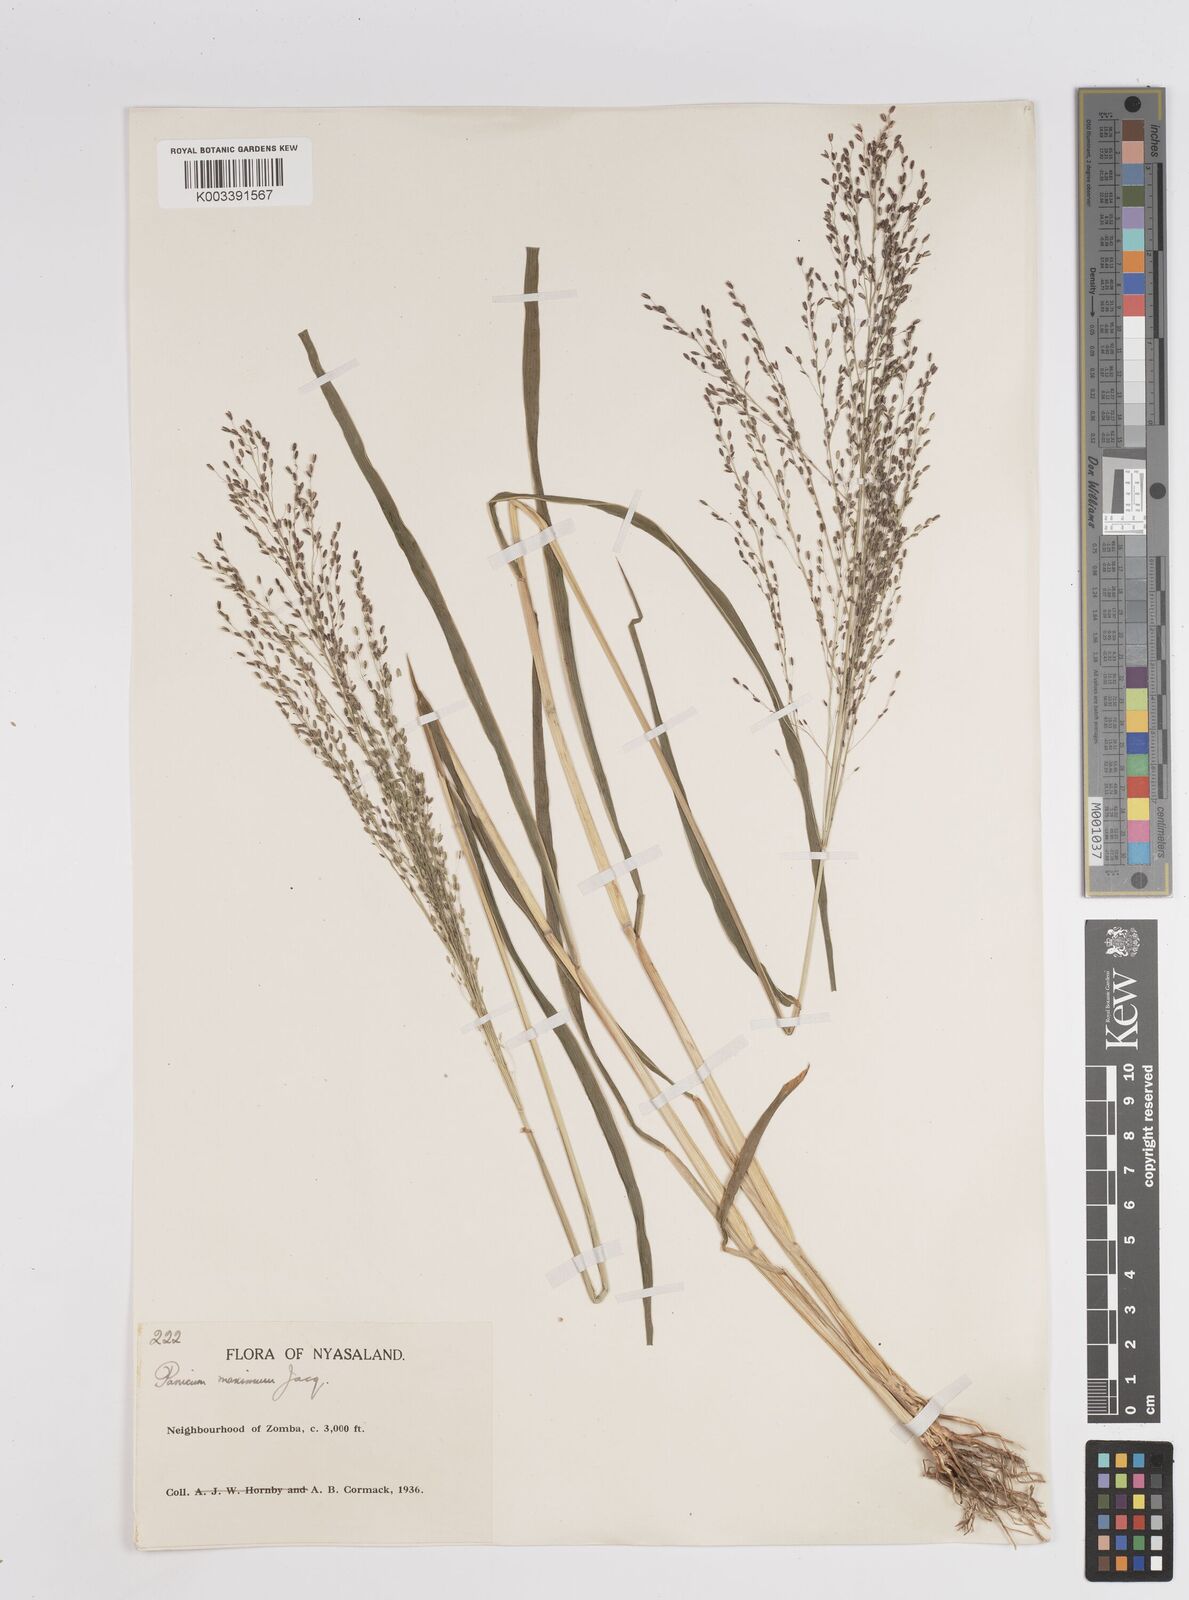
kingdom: Plantae
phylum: Tracheophyta
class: Liliopsida
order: Poales
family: Poaceae
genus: Megathyrsus
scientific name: Megathyrsus maximus
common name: Guineagrass
